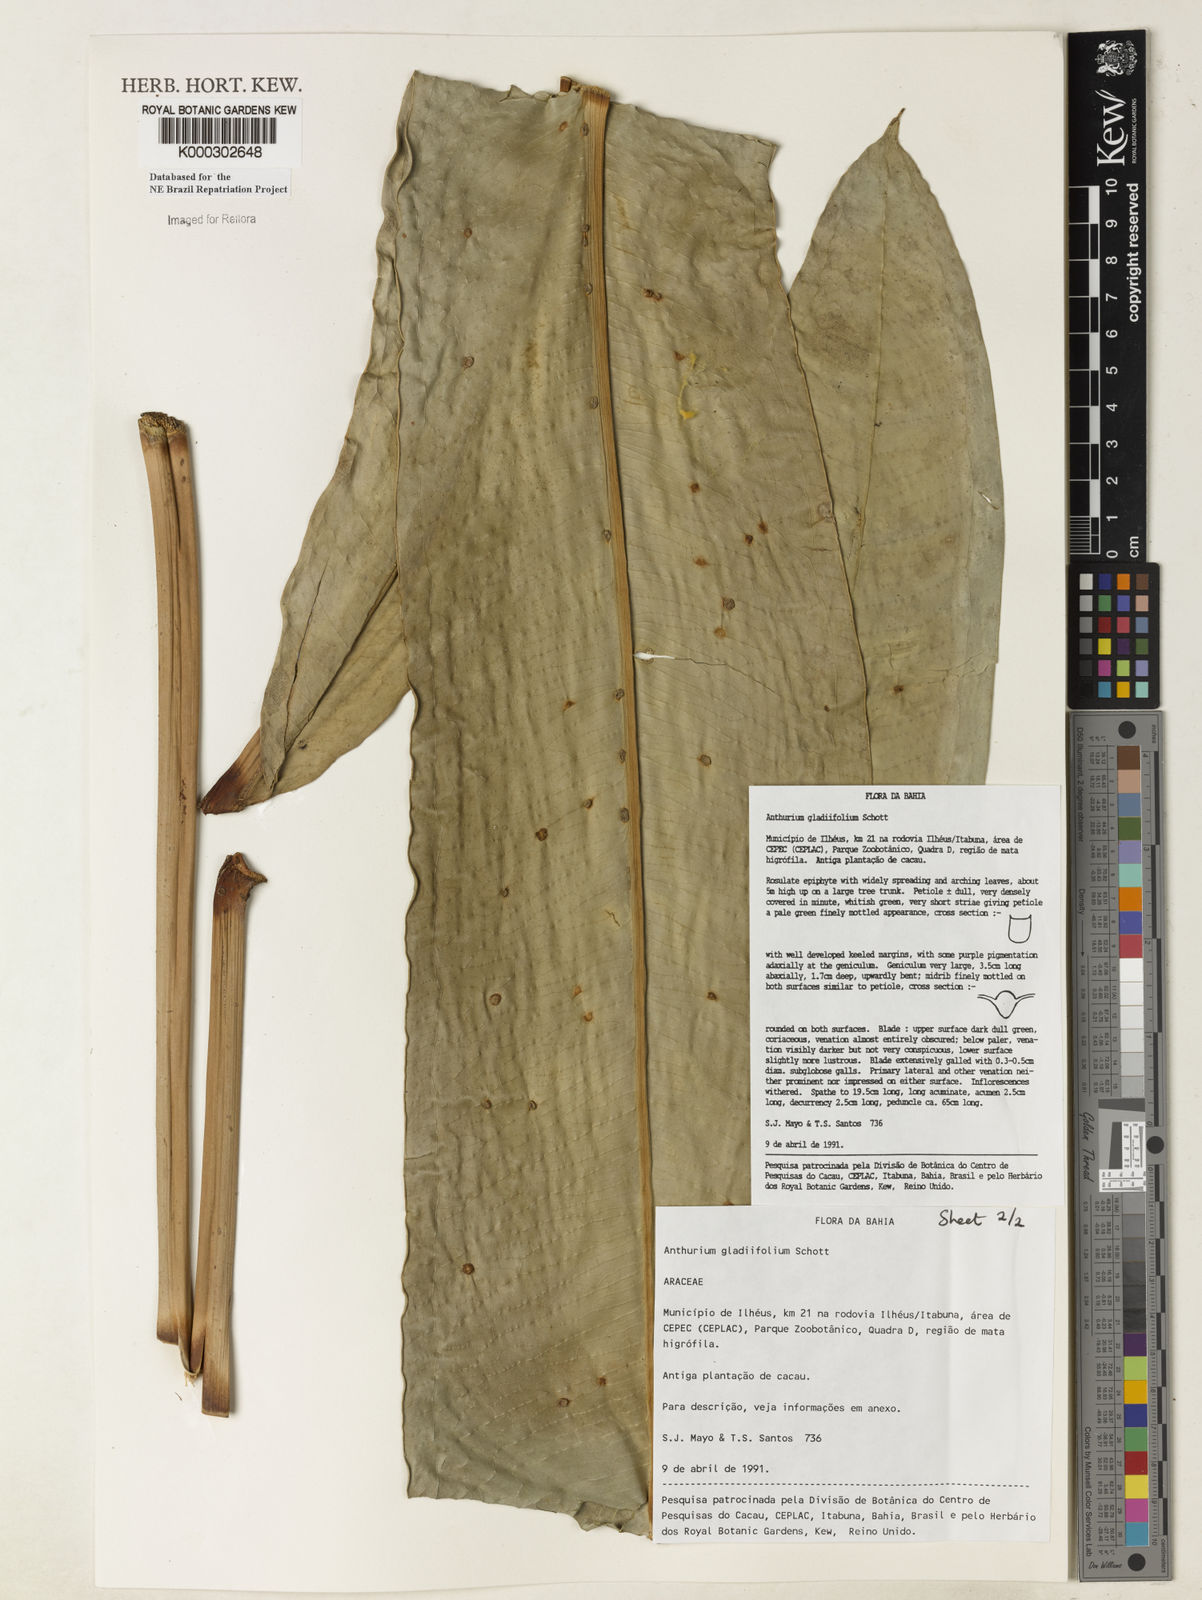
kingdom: Plantae
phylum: Tracheophyta
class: Liliopsida
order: Alismatales
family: Araceae
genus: Anthurium
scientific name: Anthurium gladiifolium
